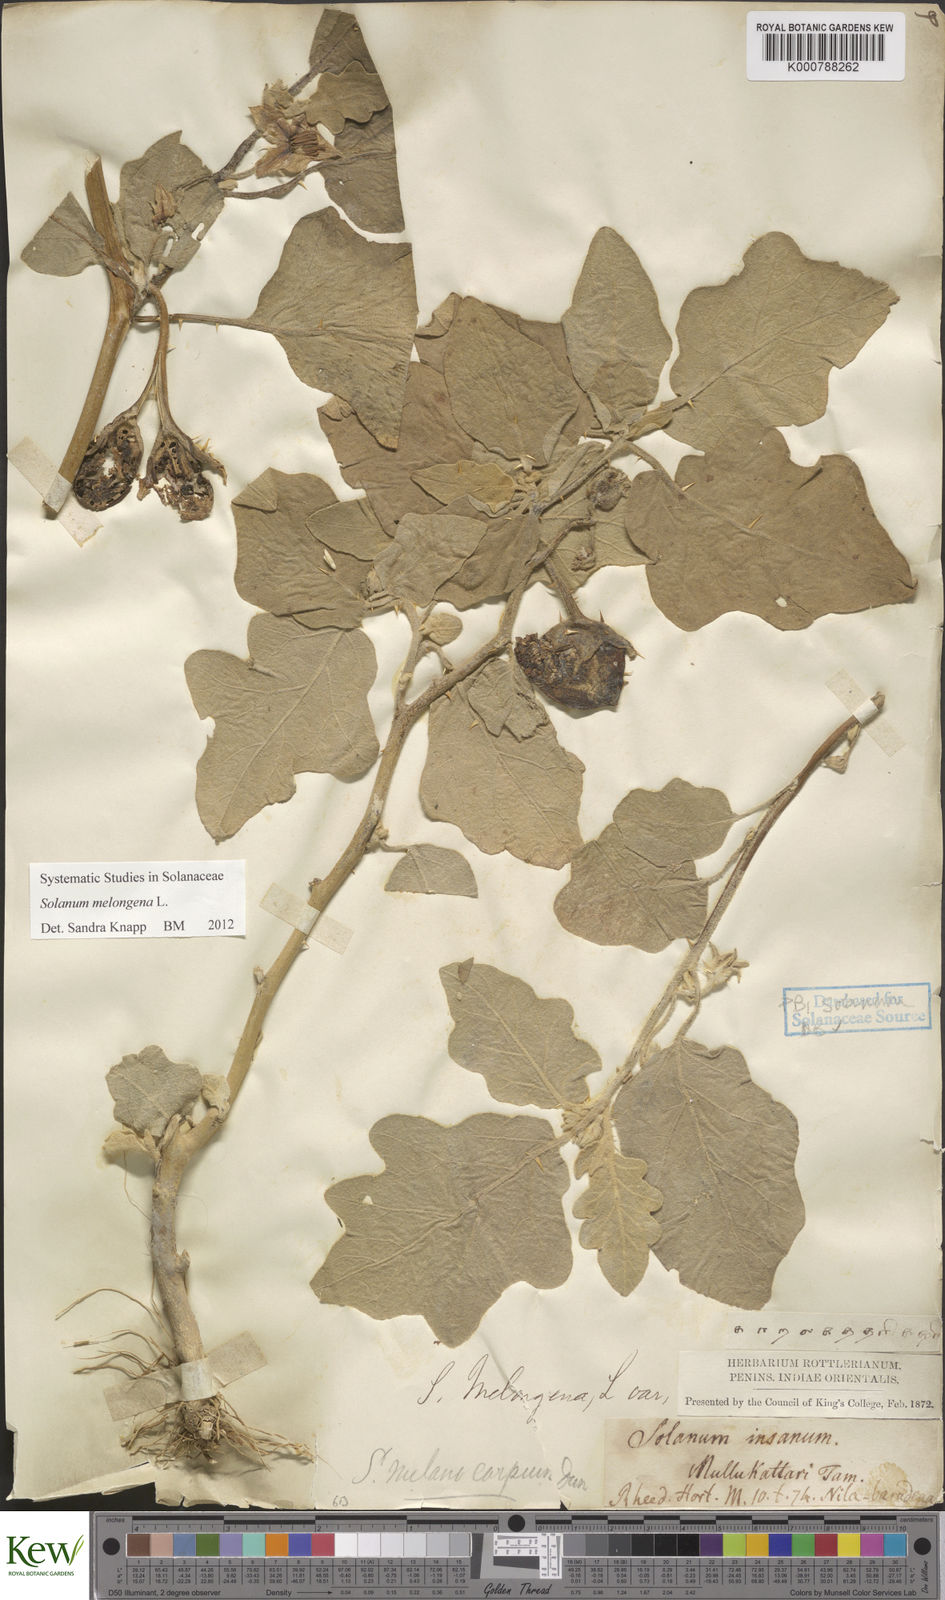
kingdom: Plantae
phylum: Tracheophyta
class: Magnoliopsida
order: Solanales
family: Solanaceae
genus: Solanum
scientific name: Solanum melongena
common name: Eggplant
